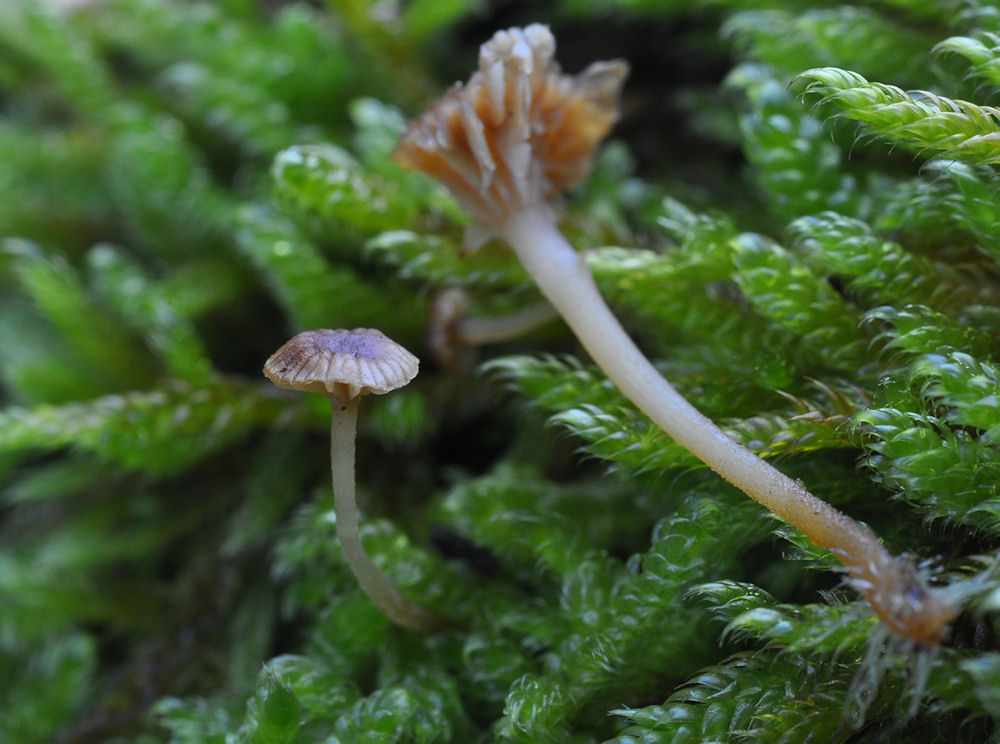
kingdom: Fungi
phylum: Basidiomycota
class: Agaricomycetes
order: Agaricales
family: Porotheleaceae
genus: Phloeomana
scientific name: Phloeomana clavata
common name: brunbladet huesvamp
